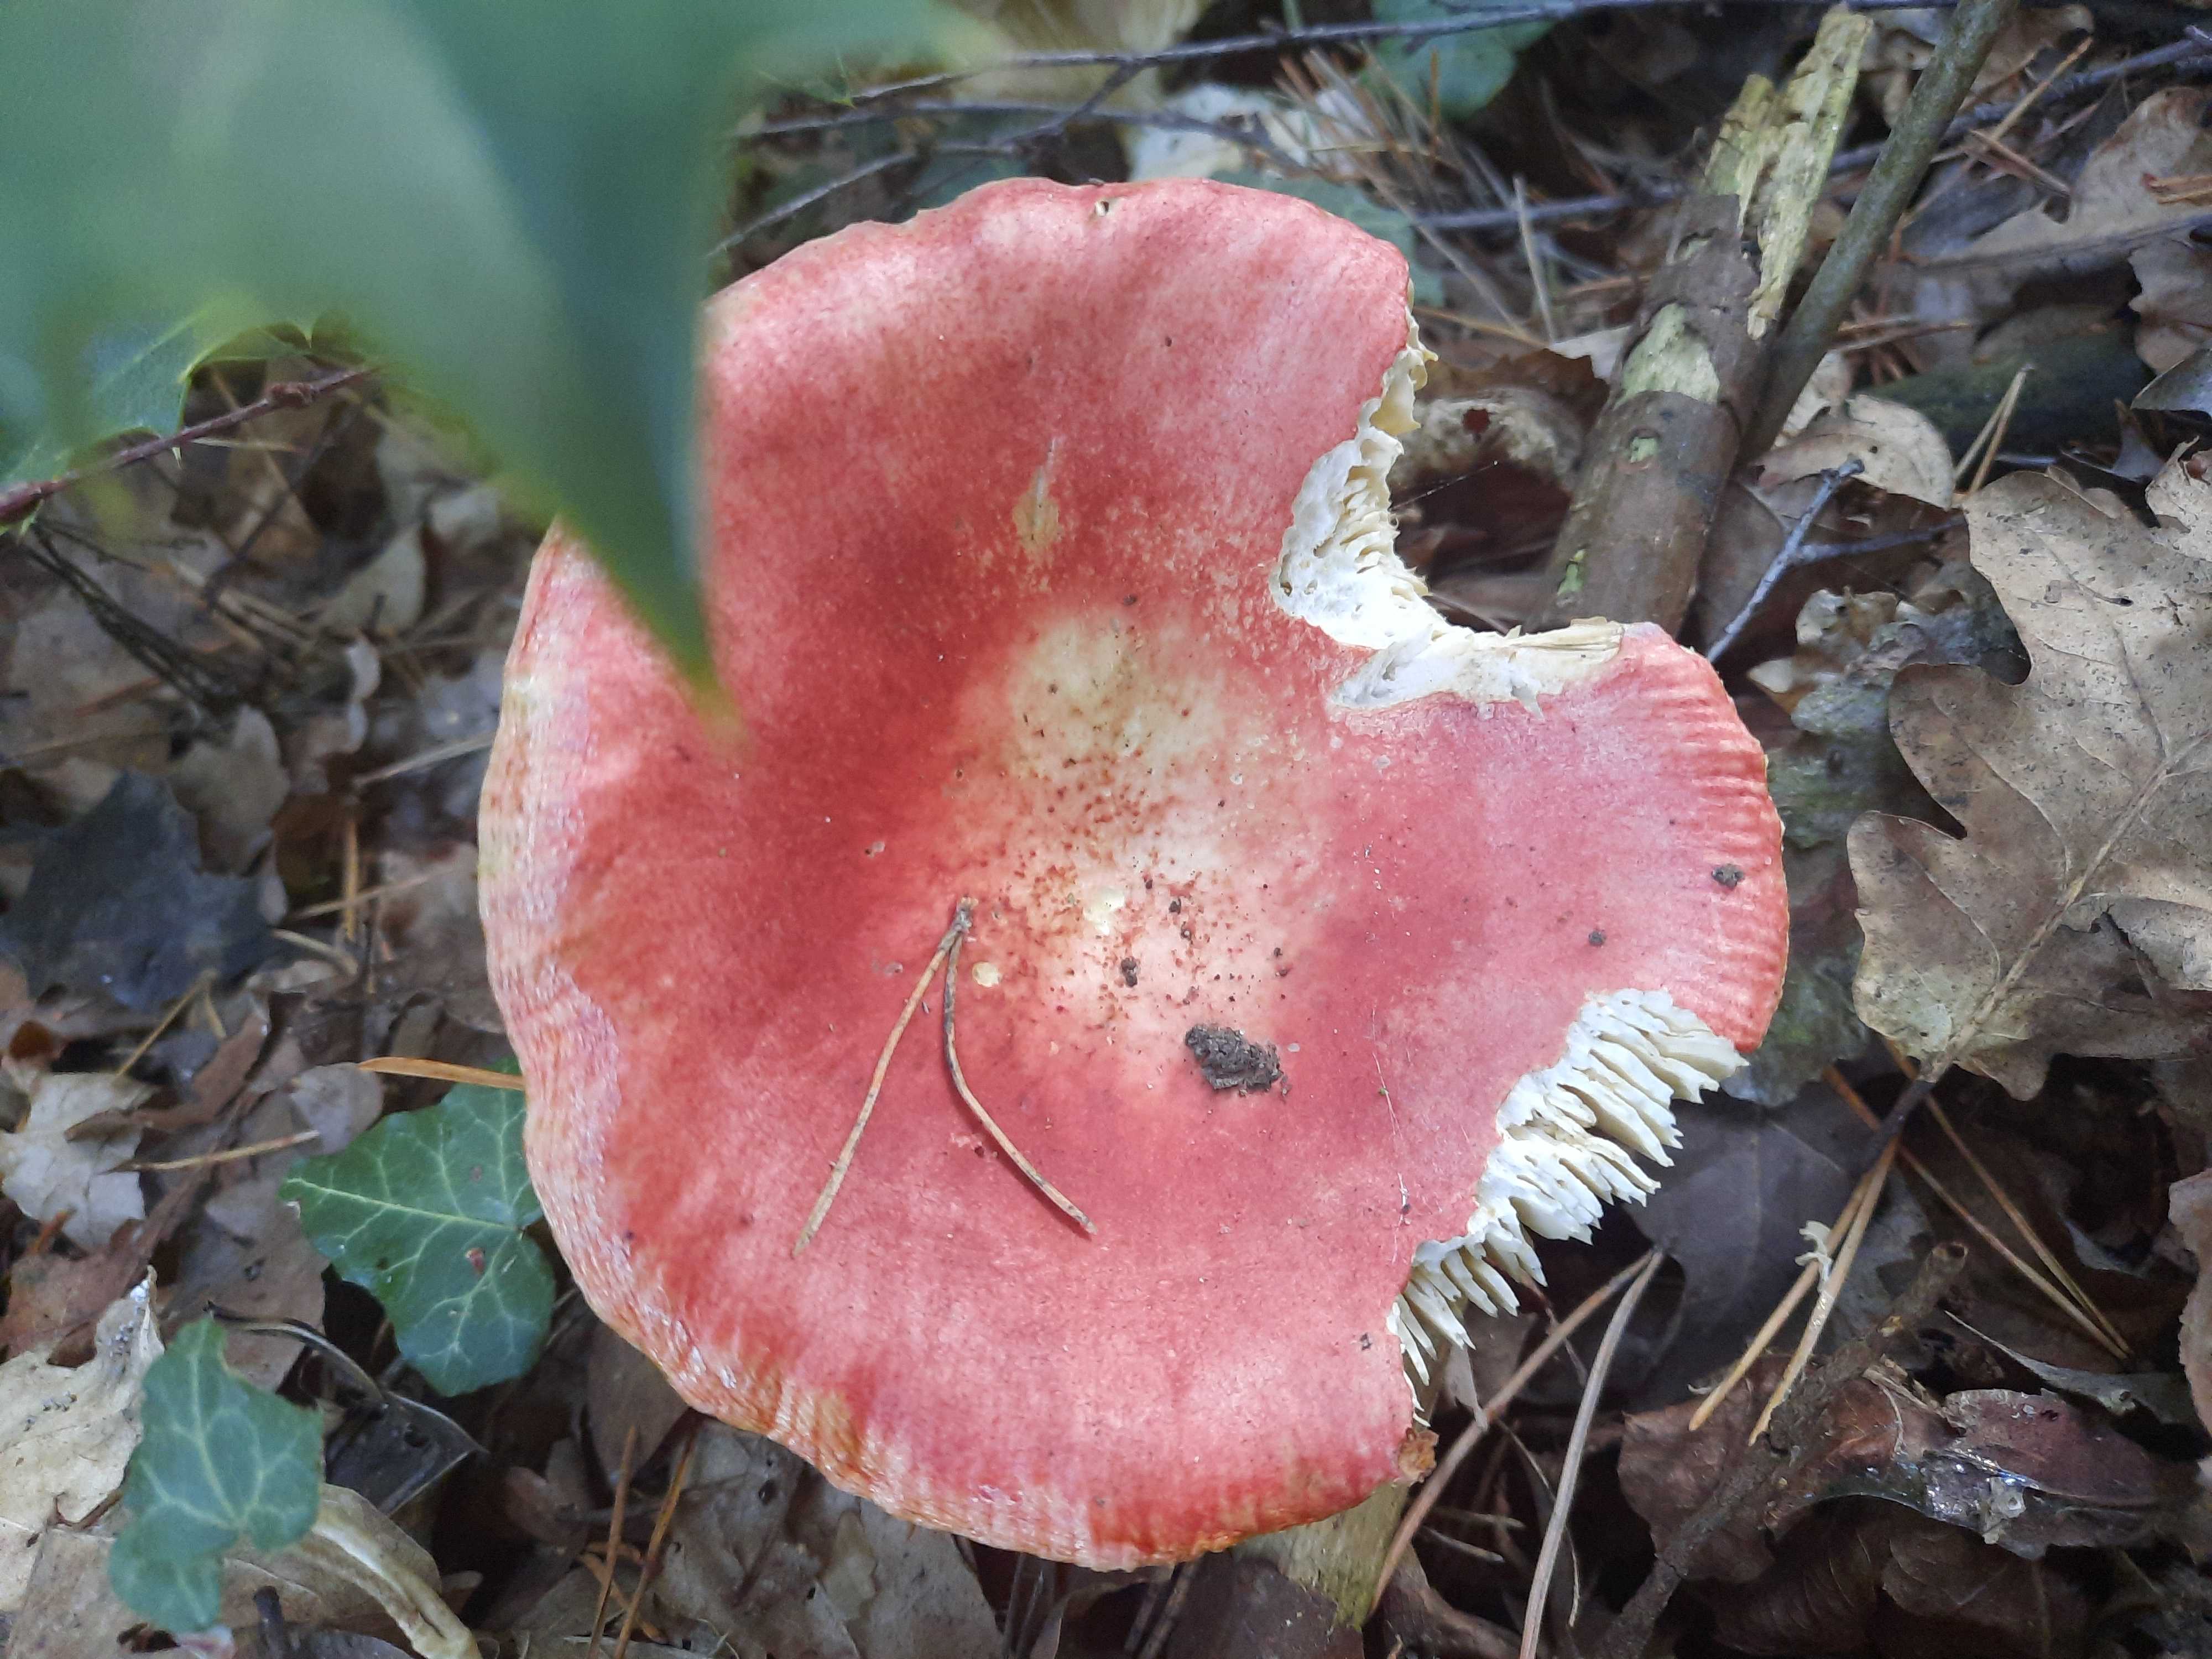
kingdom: Fungi
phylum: Basidiomycota
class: Agaricomycetes
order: Russulales
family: Russulaceae
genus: Russula
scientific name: Russula
